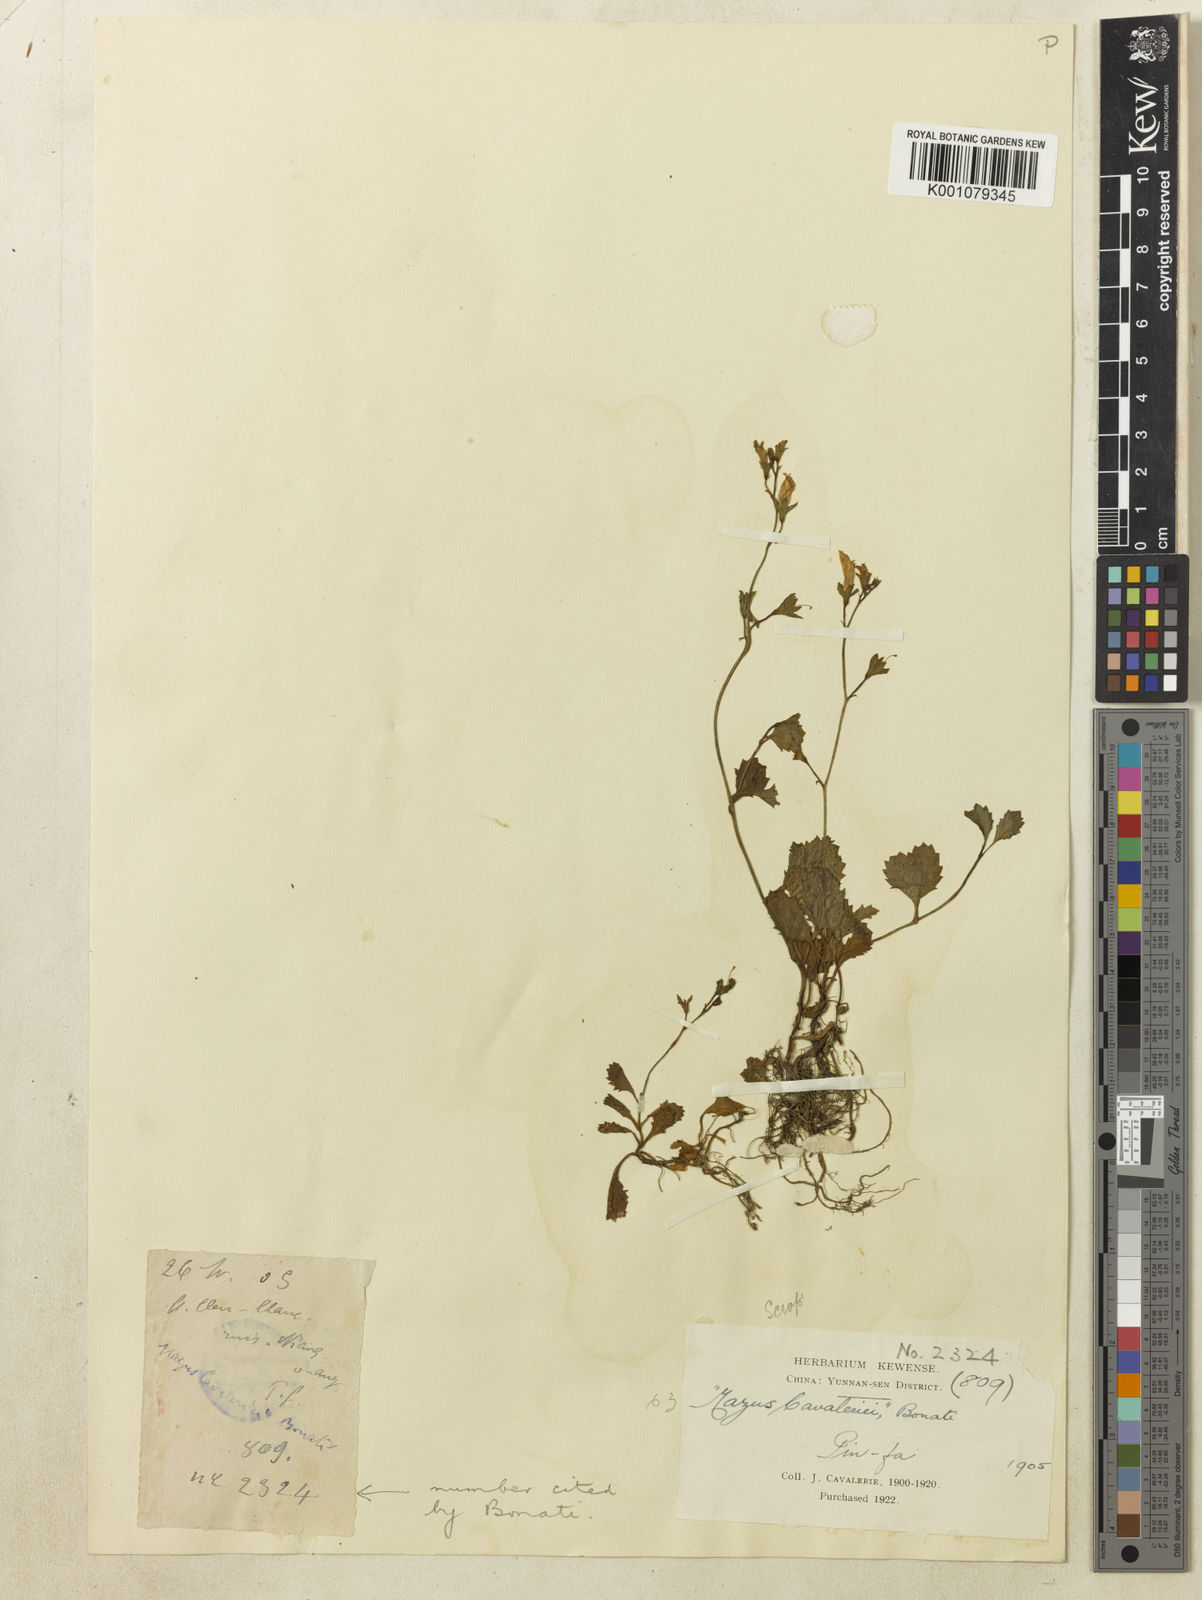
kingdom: Plantae
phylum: Tracheophyta
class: Magnoliopsida
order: Lamiales
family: Mazaceae
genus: Mazus
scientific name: Mazus spicatus
